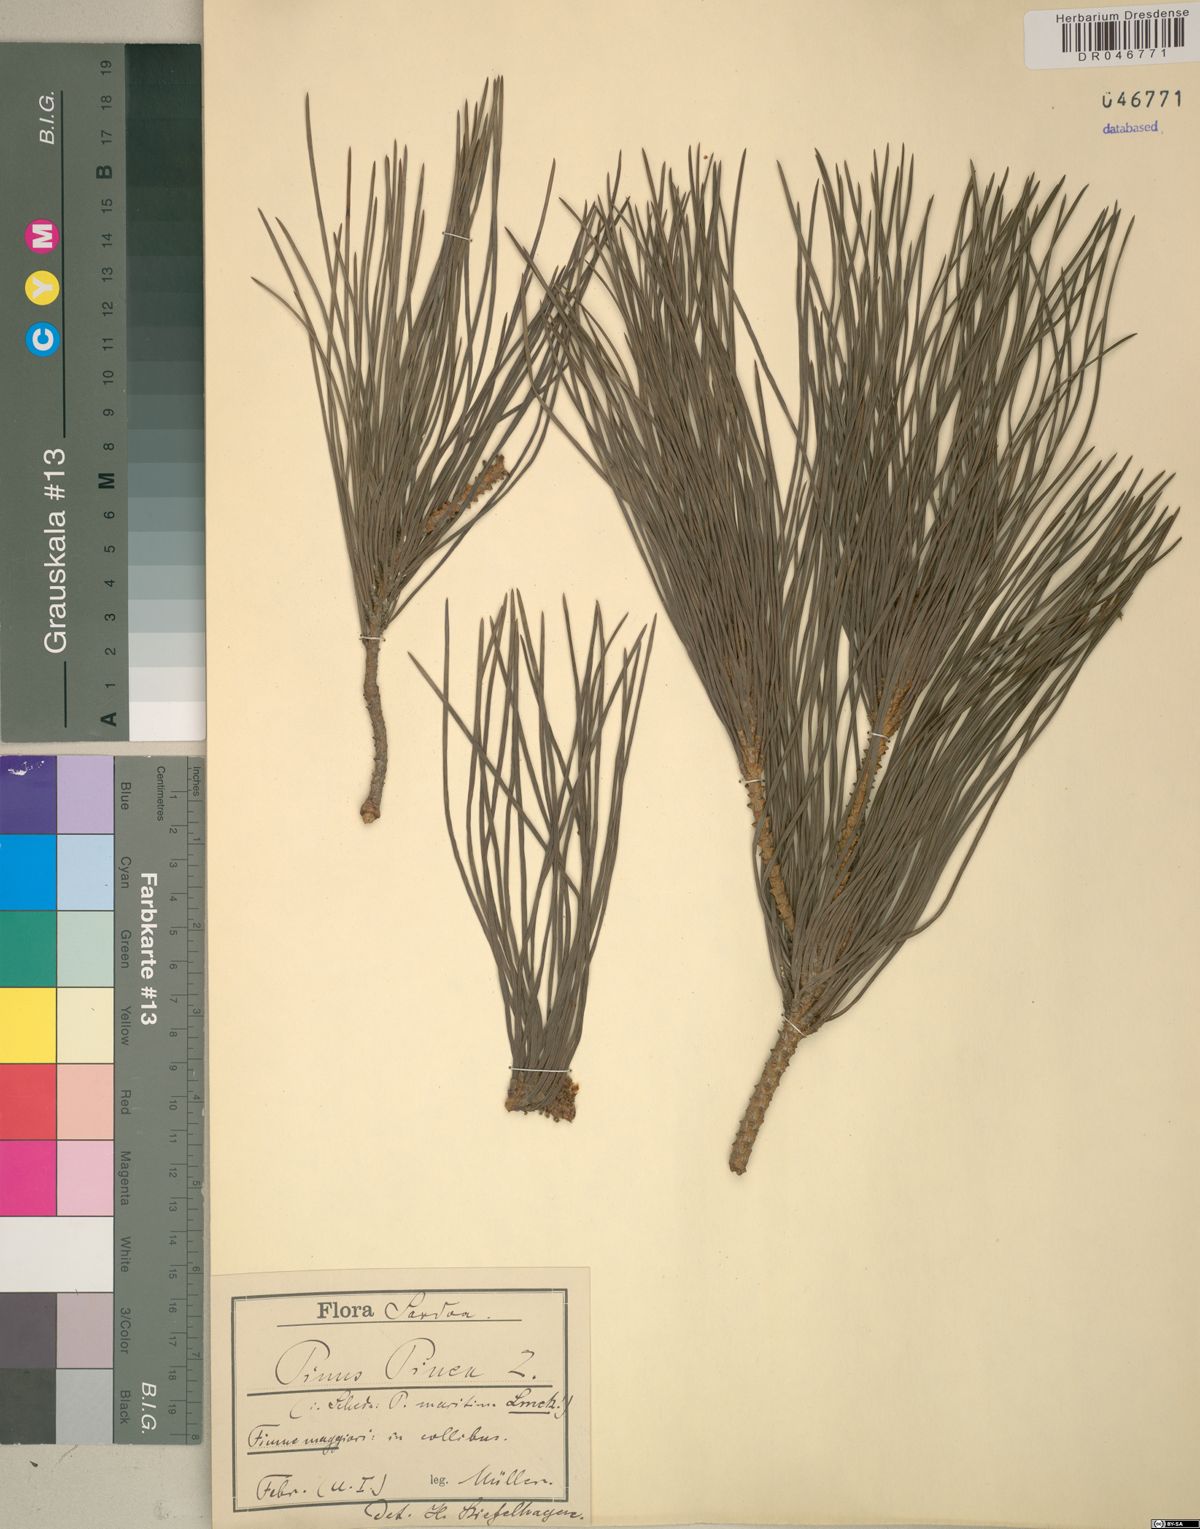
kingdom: Plantae
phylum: Tracheophyta
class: Pinopsida
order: Pinales
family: Pinaceae
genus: Pinus
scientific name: Pinus pinea
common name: Italian stone pine
